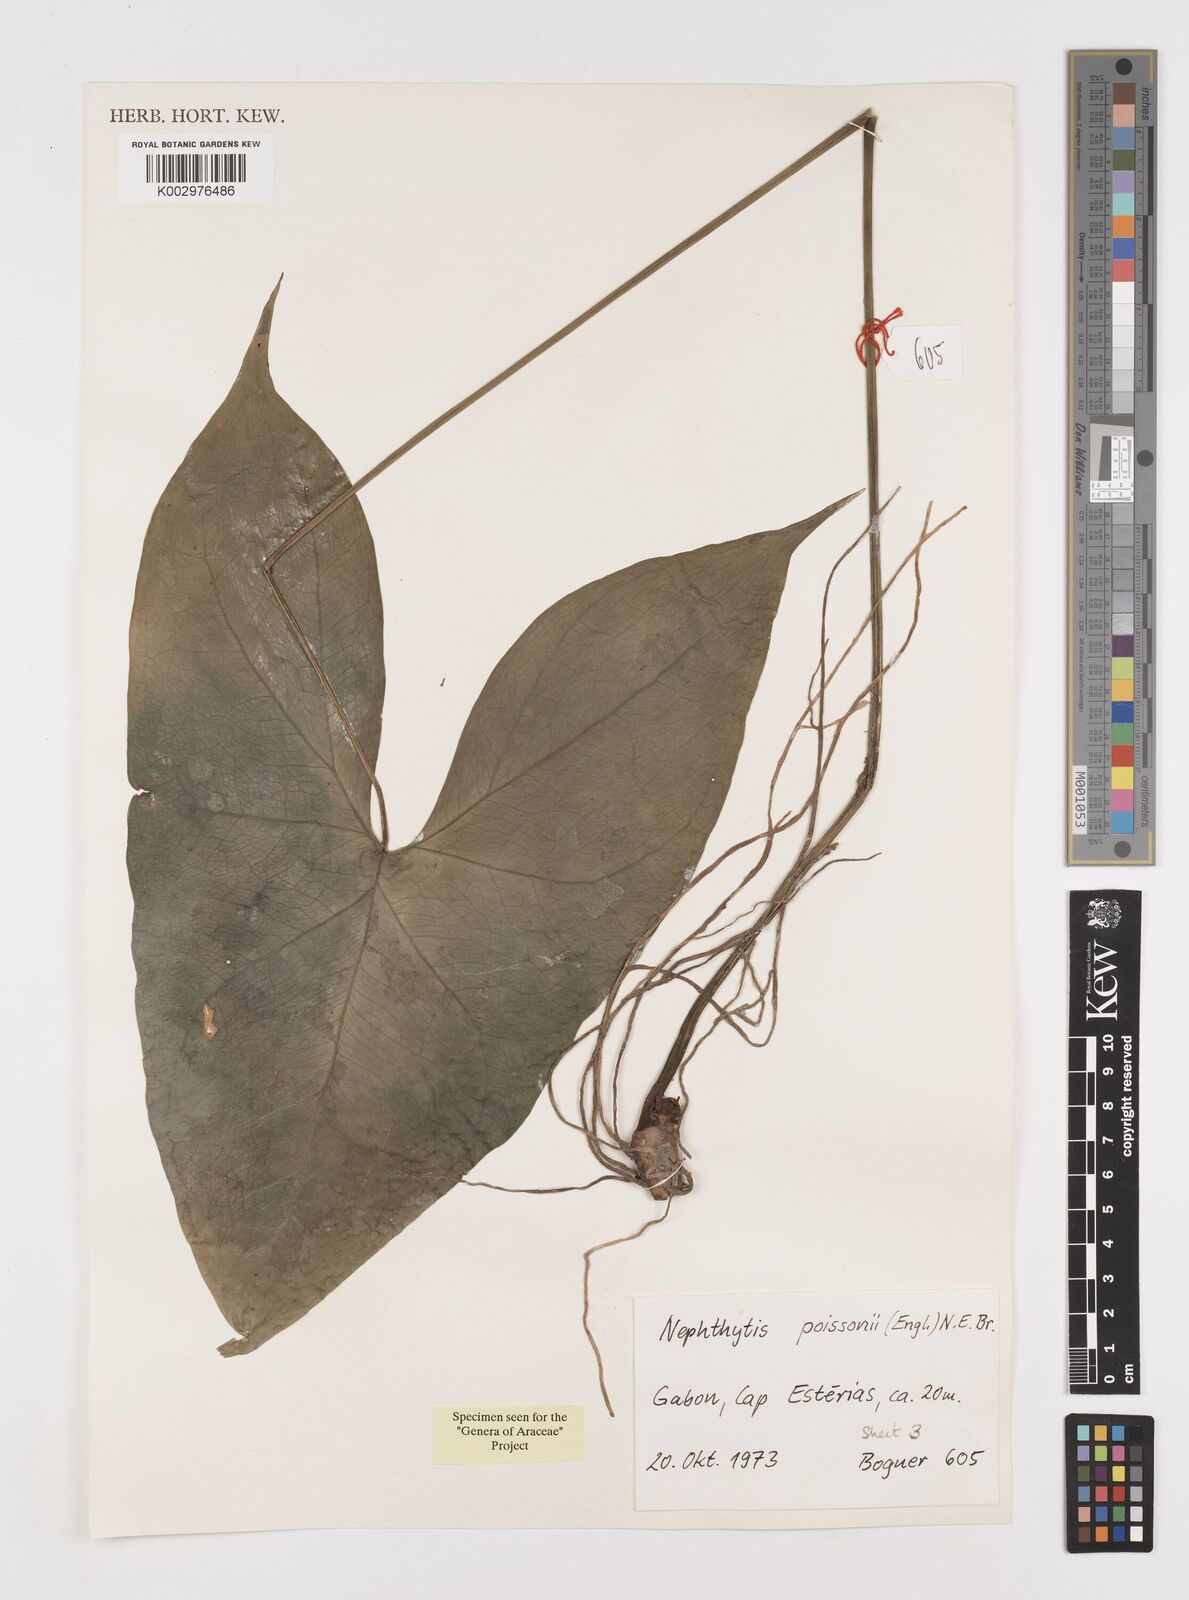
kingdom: Plantae
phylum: Tracheophyta
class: Liliopsida
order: Alismatales
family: Araceae
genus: Nephthytis
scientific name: Nephthytis poissonii
